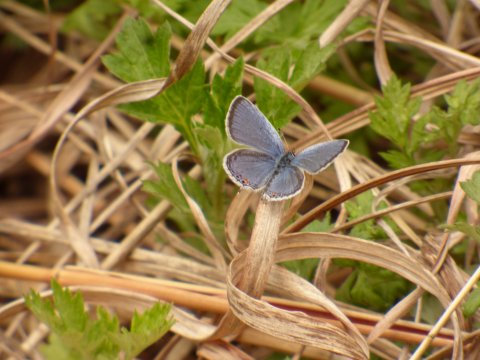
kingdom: Animalia
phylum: Arthropoda
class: Insecta
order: Lepidoptera
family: Lycaenidae
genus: Elkalyce
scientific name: Elkalyce comyntas
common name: Eastern Tailed-Blue
